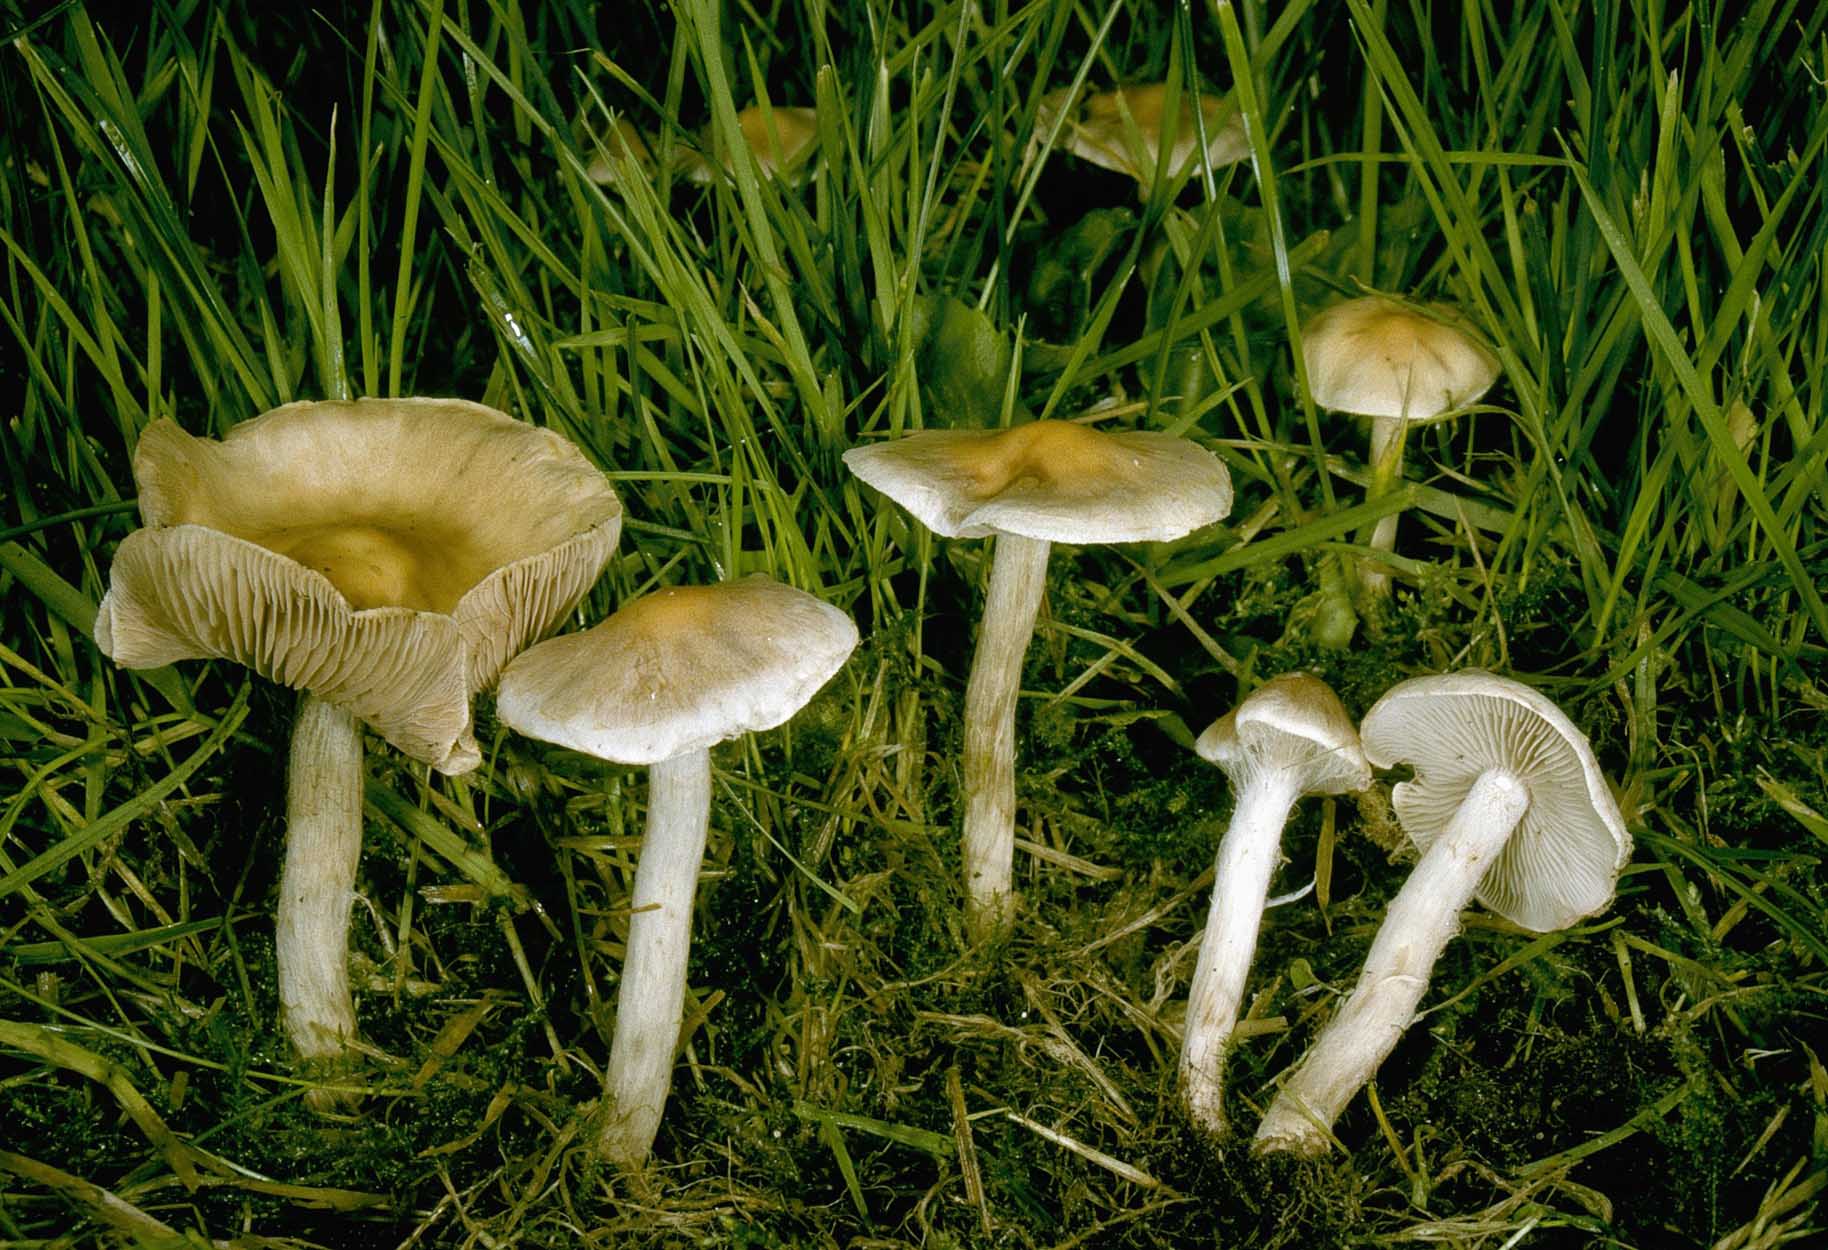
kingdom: Fungi
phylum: Basidiomycota
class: Agaricomycetes
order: Agaricales
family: Hymenogastraceae
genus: Hebeloma
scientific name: Hebeloma mesophaeum
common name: lerbrun tåreblad
